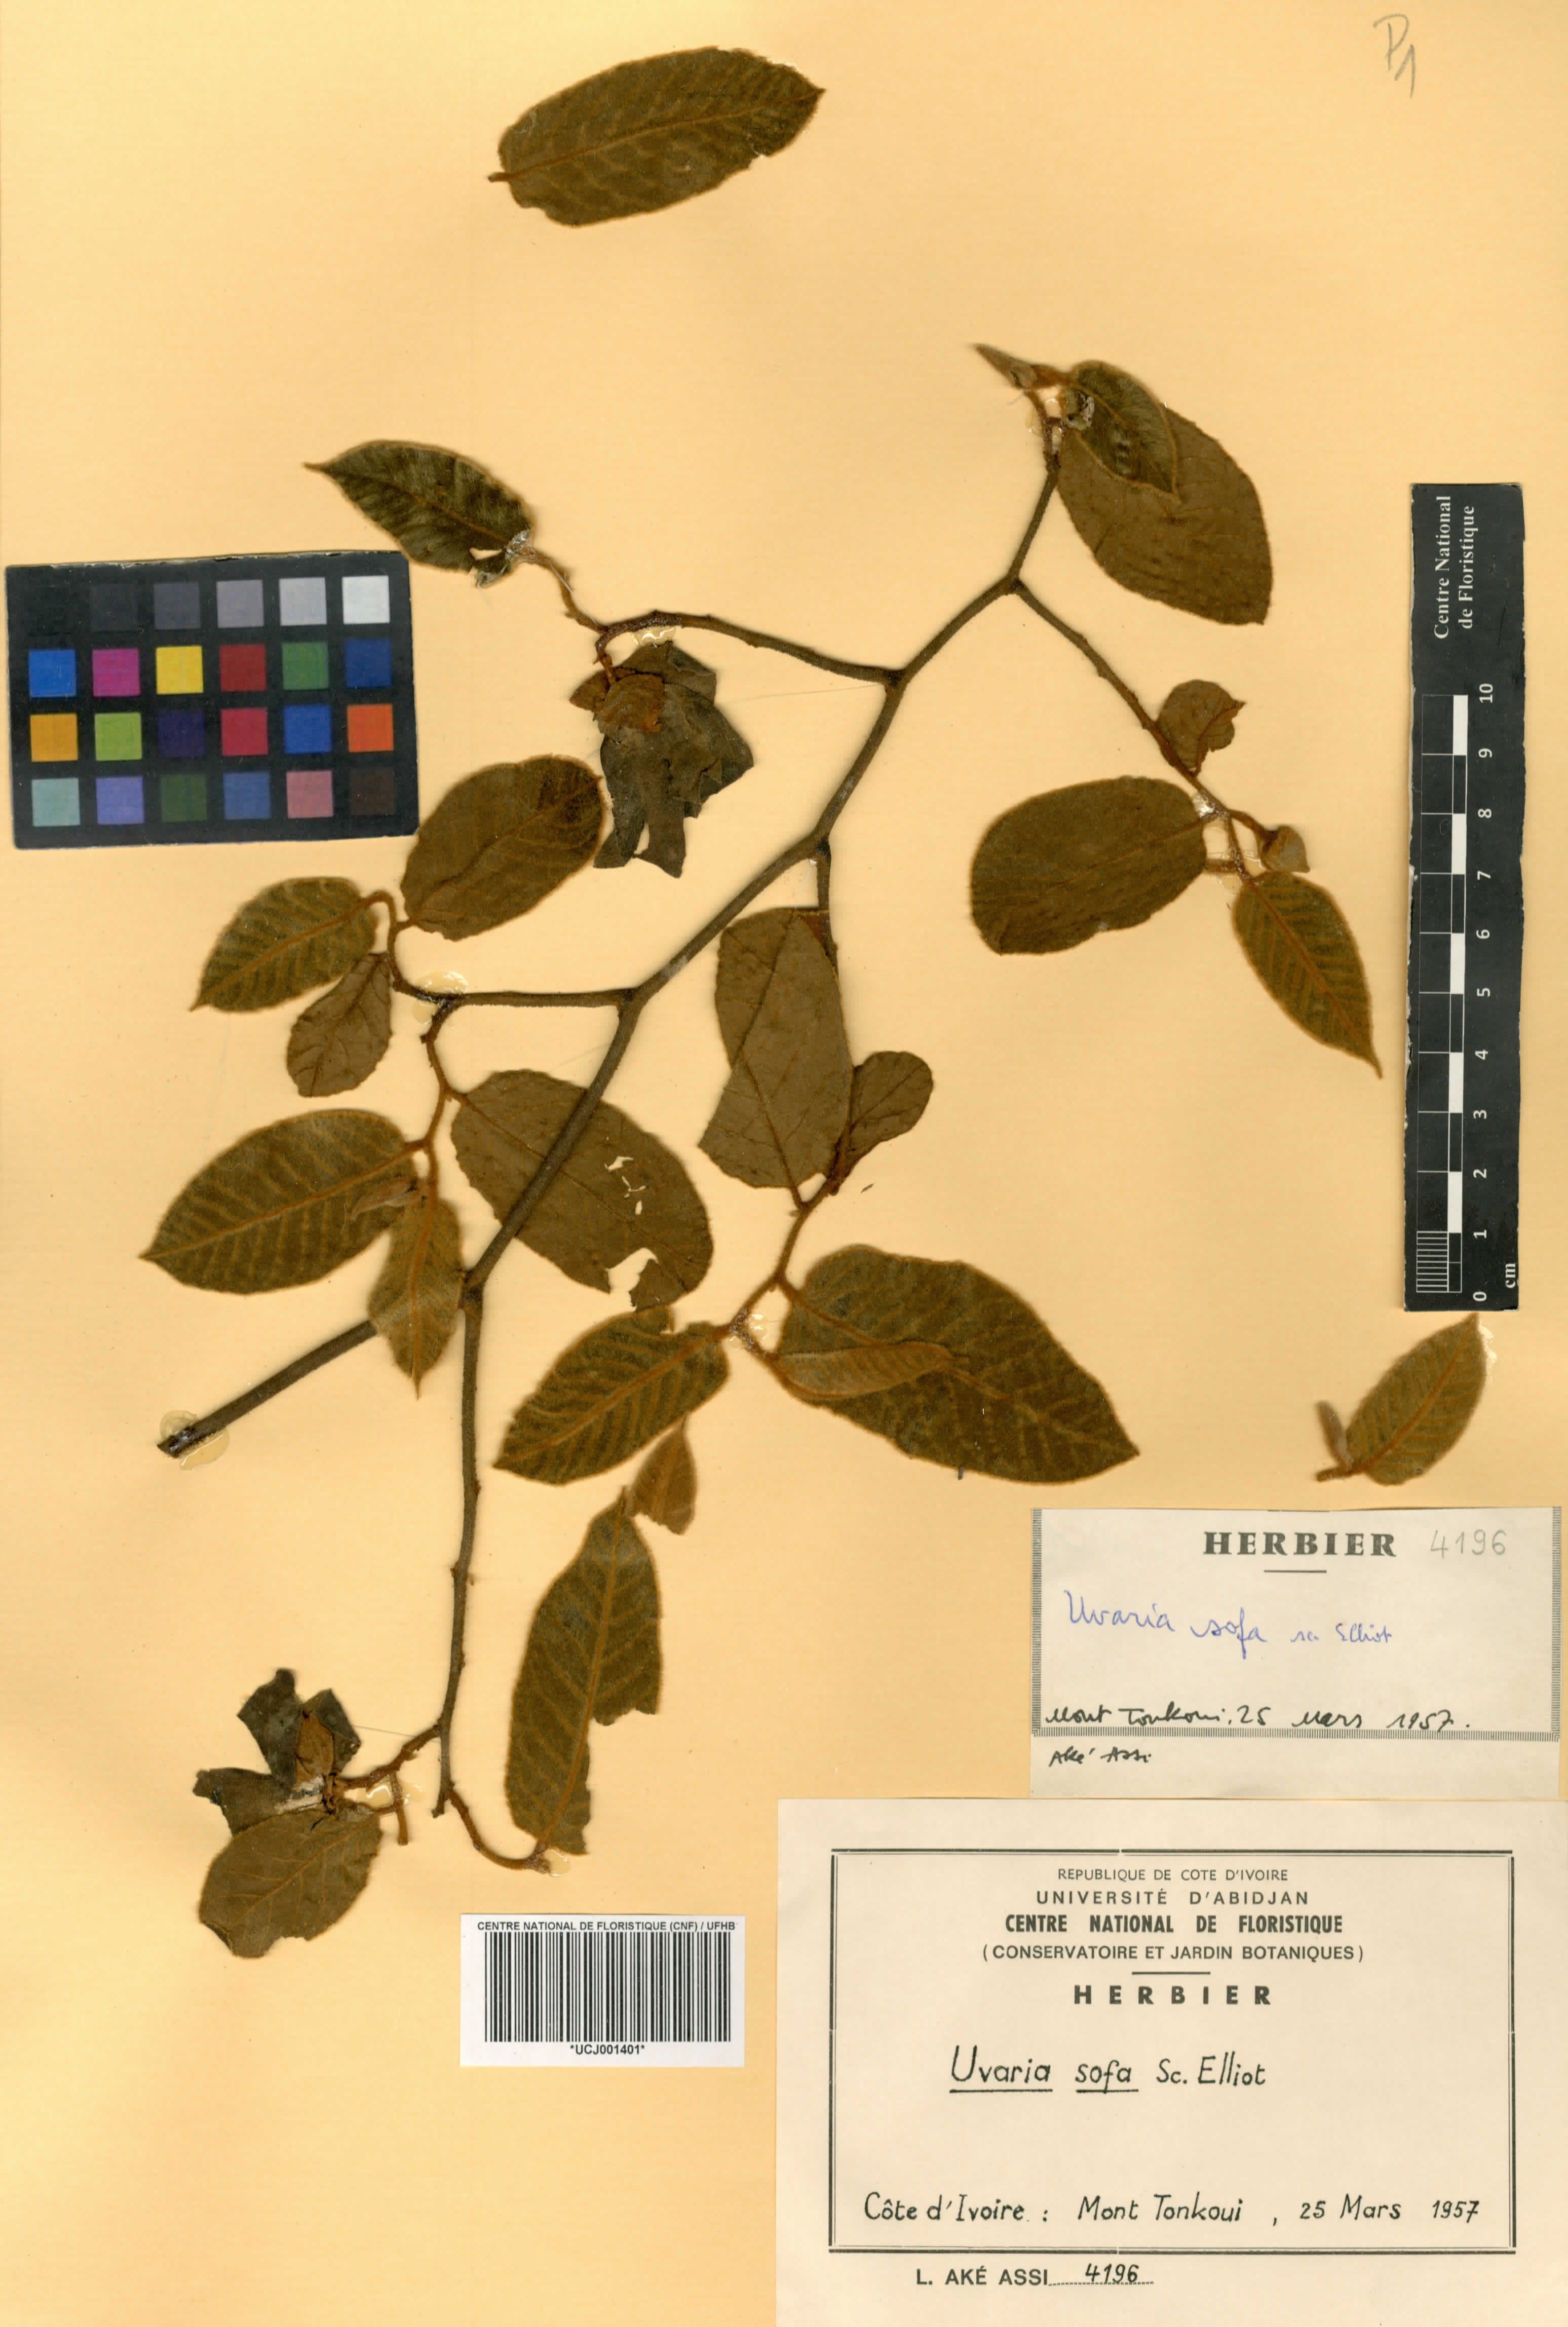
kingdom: Plantae
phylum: Tracheophyta
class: Magnoliopsida
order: Magnoliales
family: Annonaceae
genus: Uvaria
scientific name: Uvaria sofa
